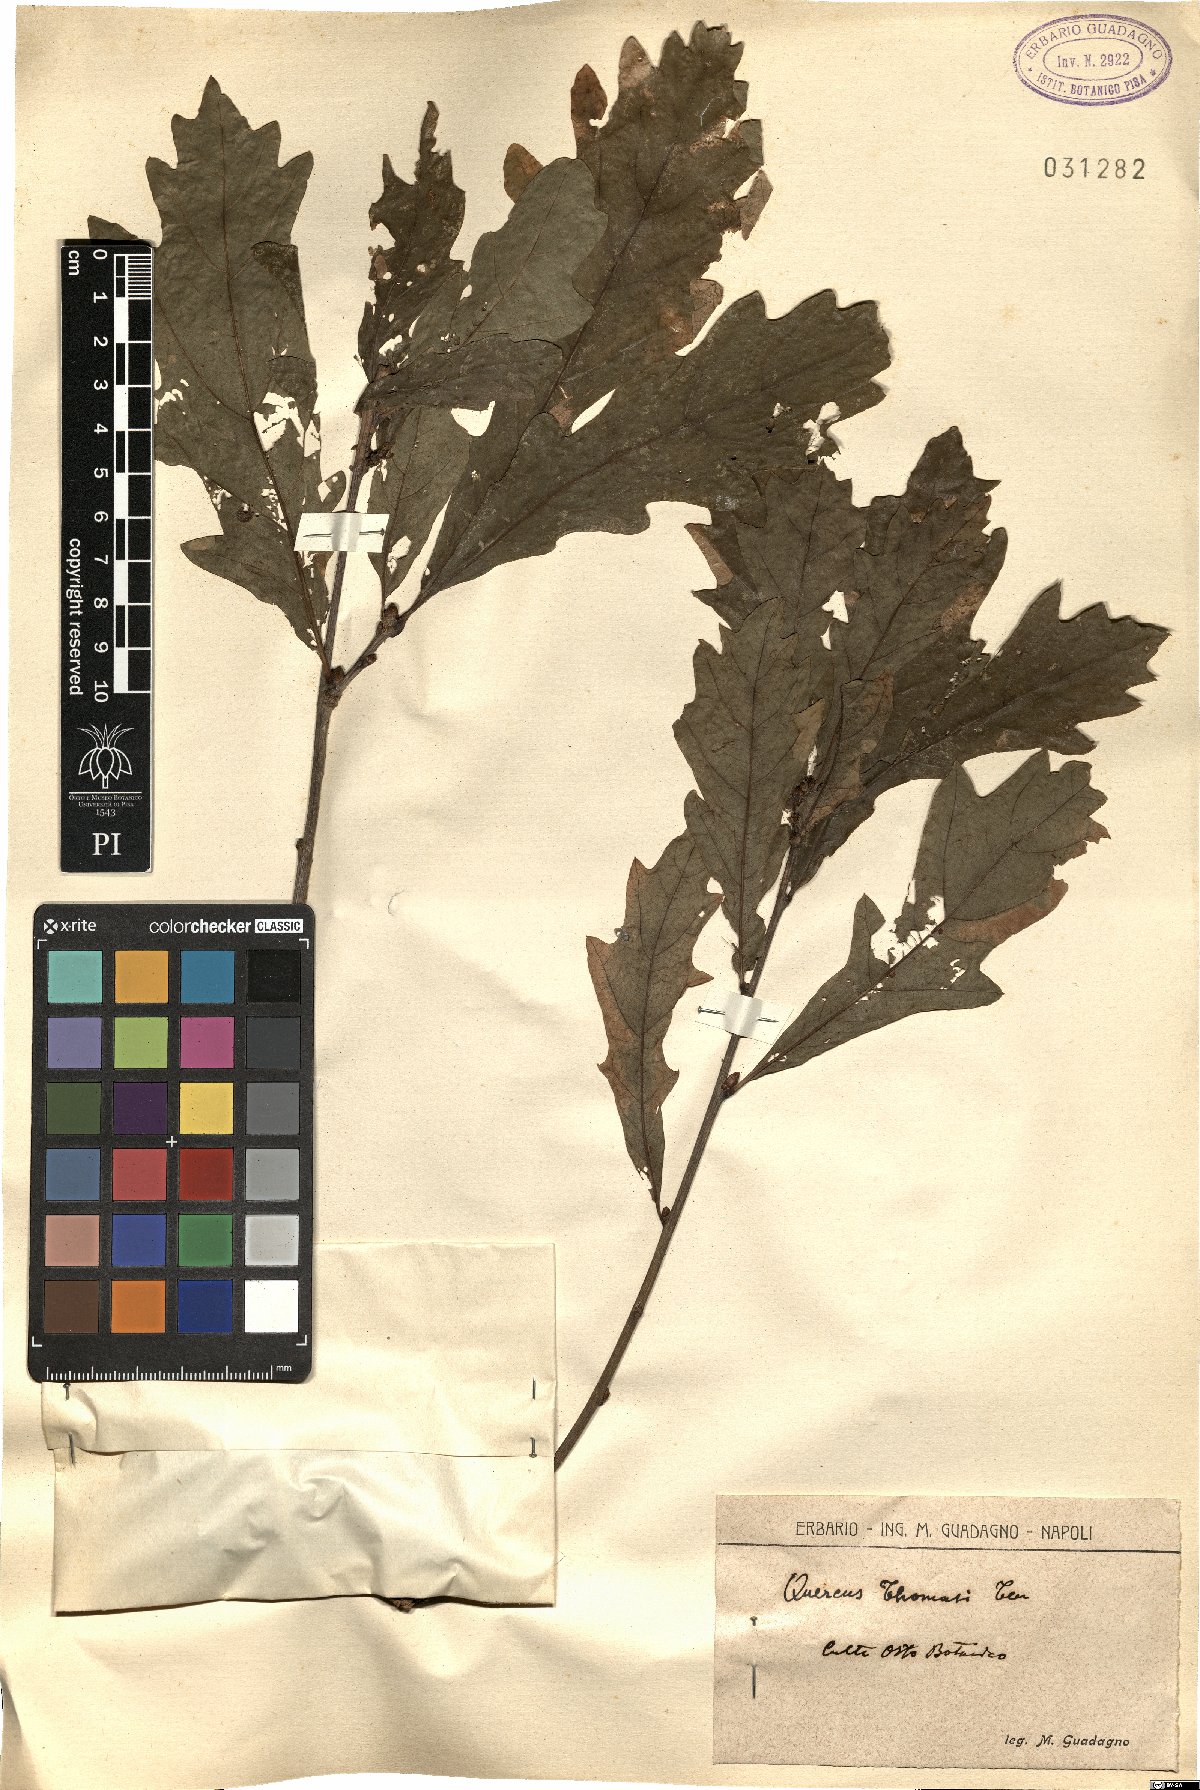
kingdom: Plantae
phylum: Tracheophyta
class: Magnoliopsida
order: Fagales
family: Fagaceae
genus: Quercus
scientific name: Quercus robur
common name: Pedunculate oak
